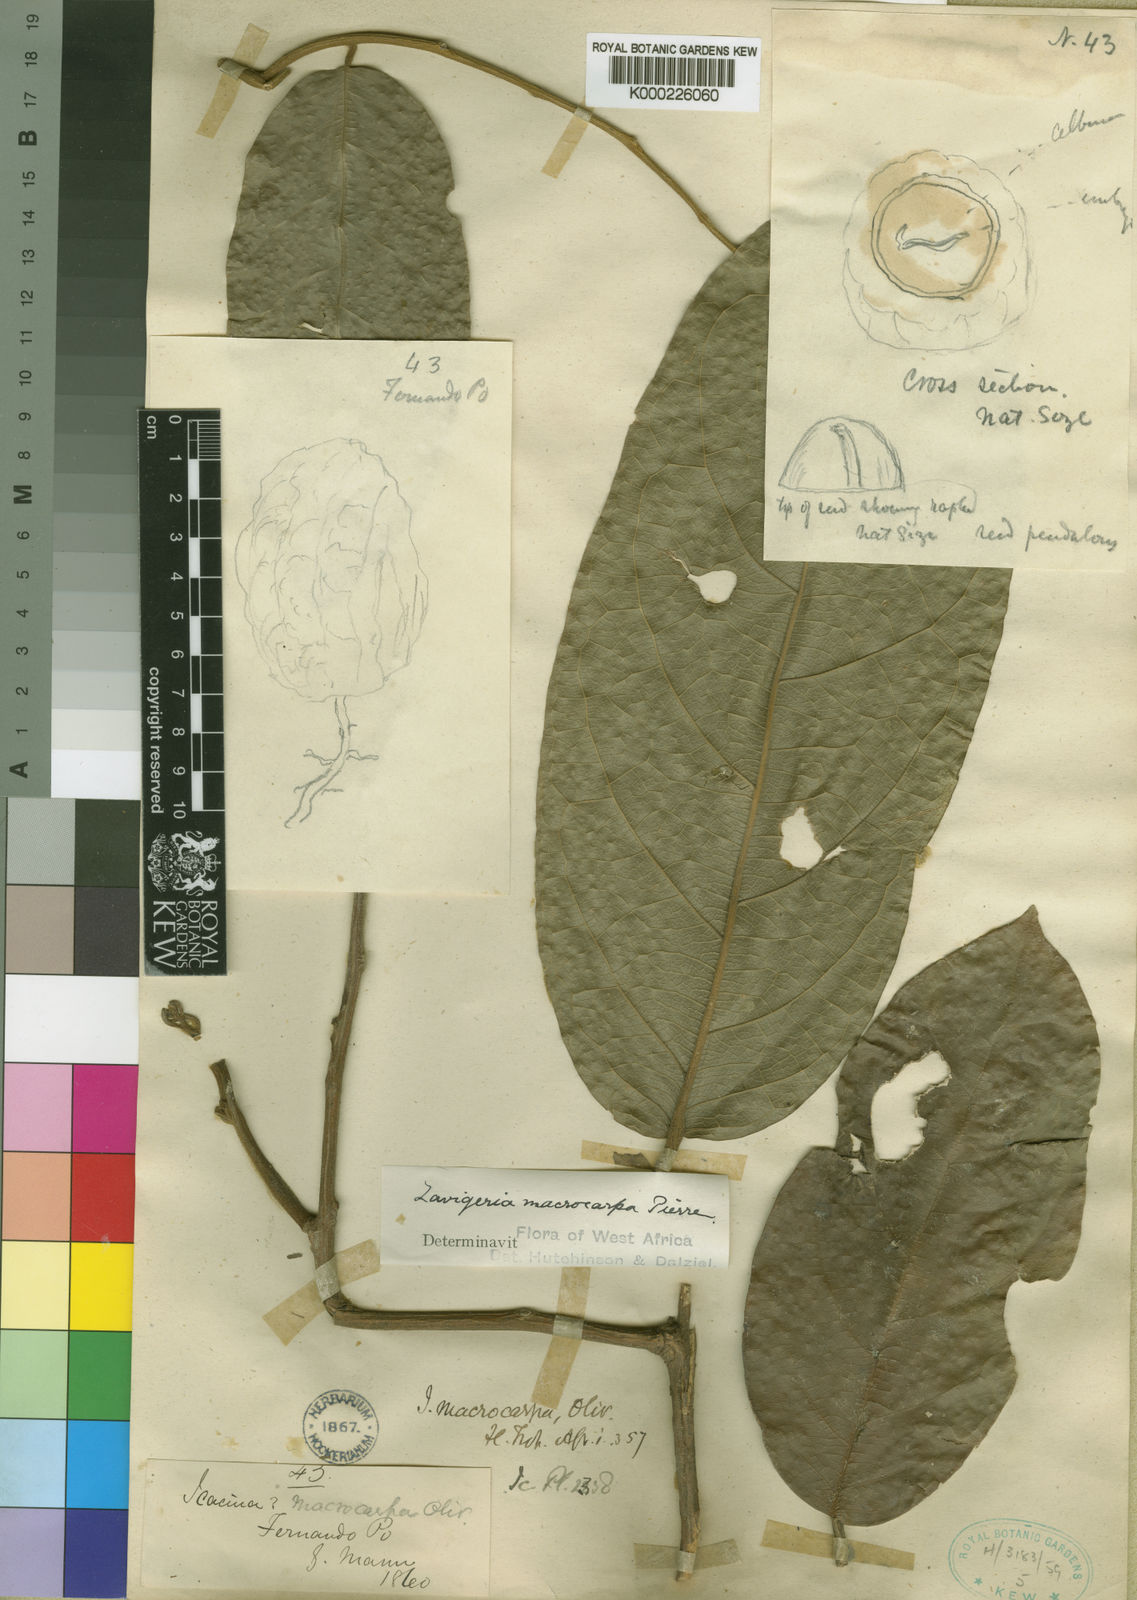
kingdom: Plantae
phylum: Tracheophyta
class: Magnoliopsida
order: Icacinales
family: Icacinaceae
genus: Lavigeria
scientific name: Lavigeria macrocarpa
